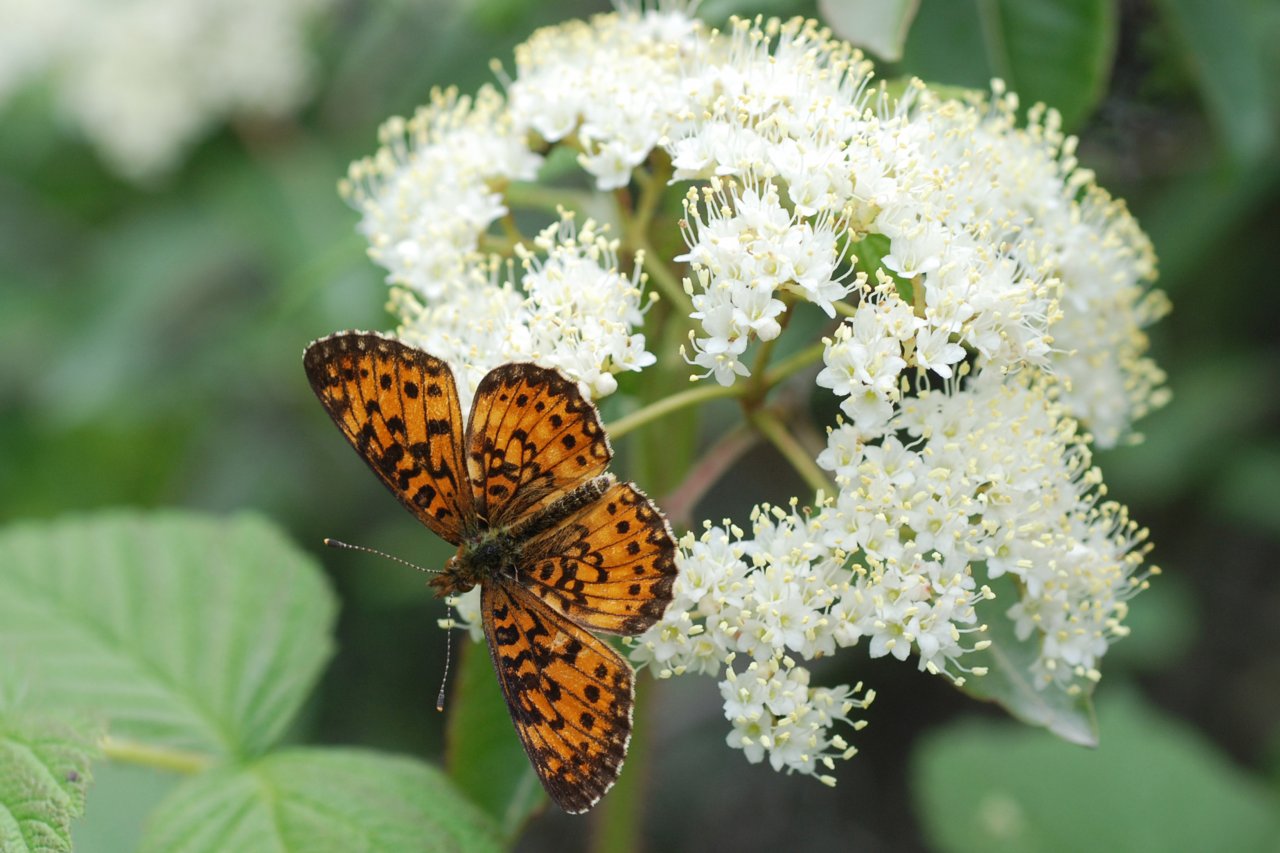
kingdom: Animalia
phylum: Arthropoda
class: Insecta
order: Lepidoptera
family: Nymphalidae
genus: Boloria
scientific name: Boloria selene
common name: Silver-bordered Fritillary
